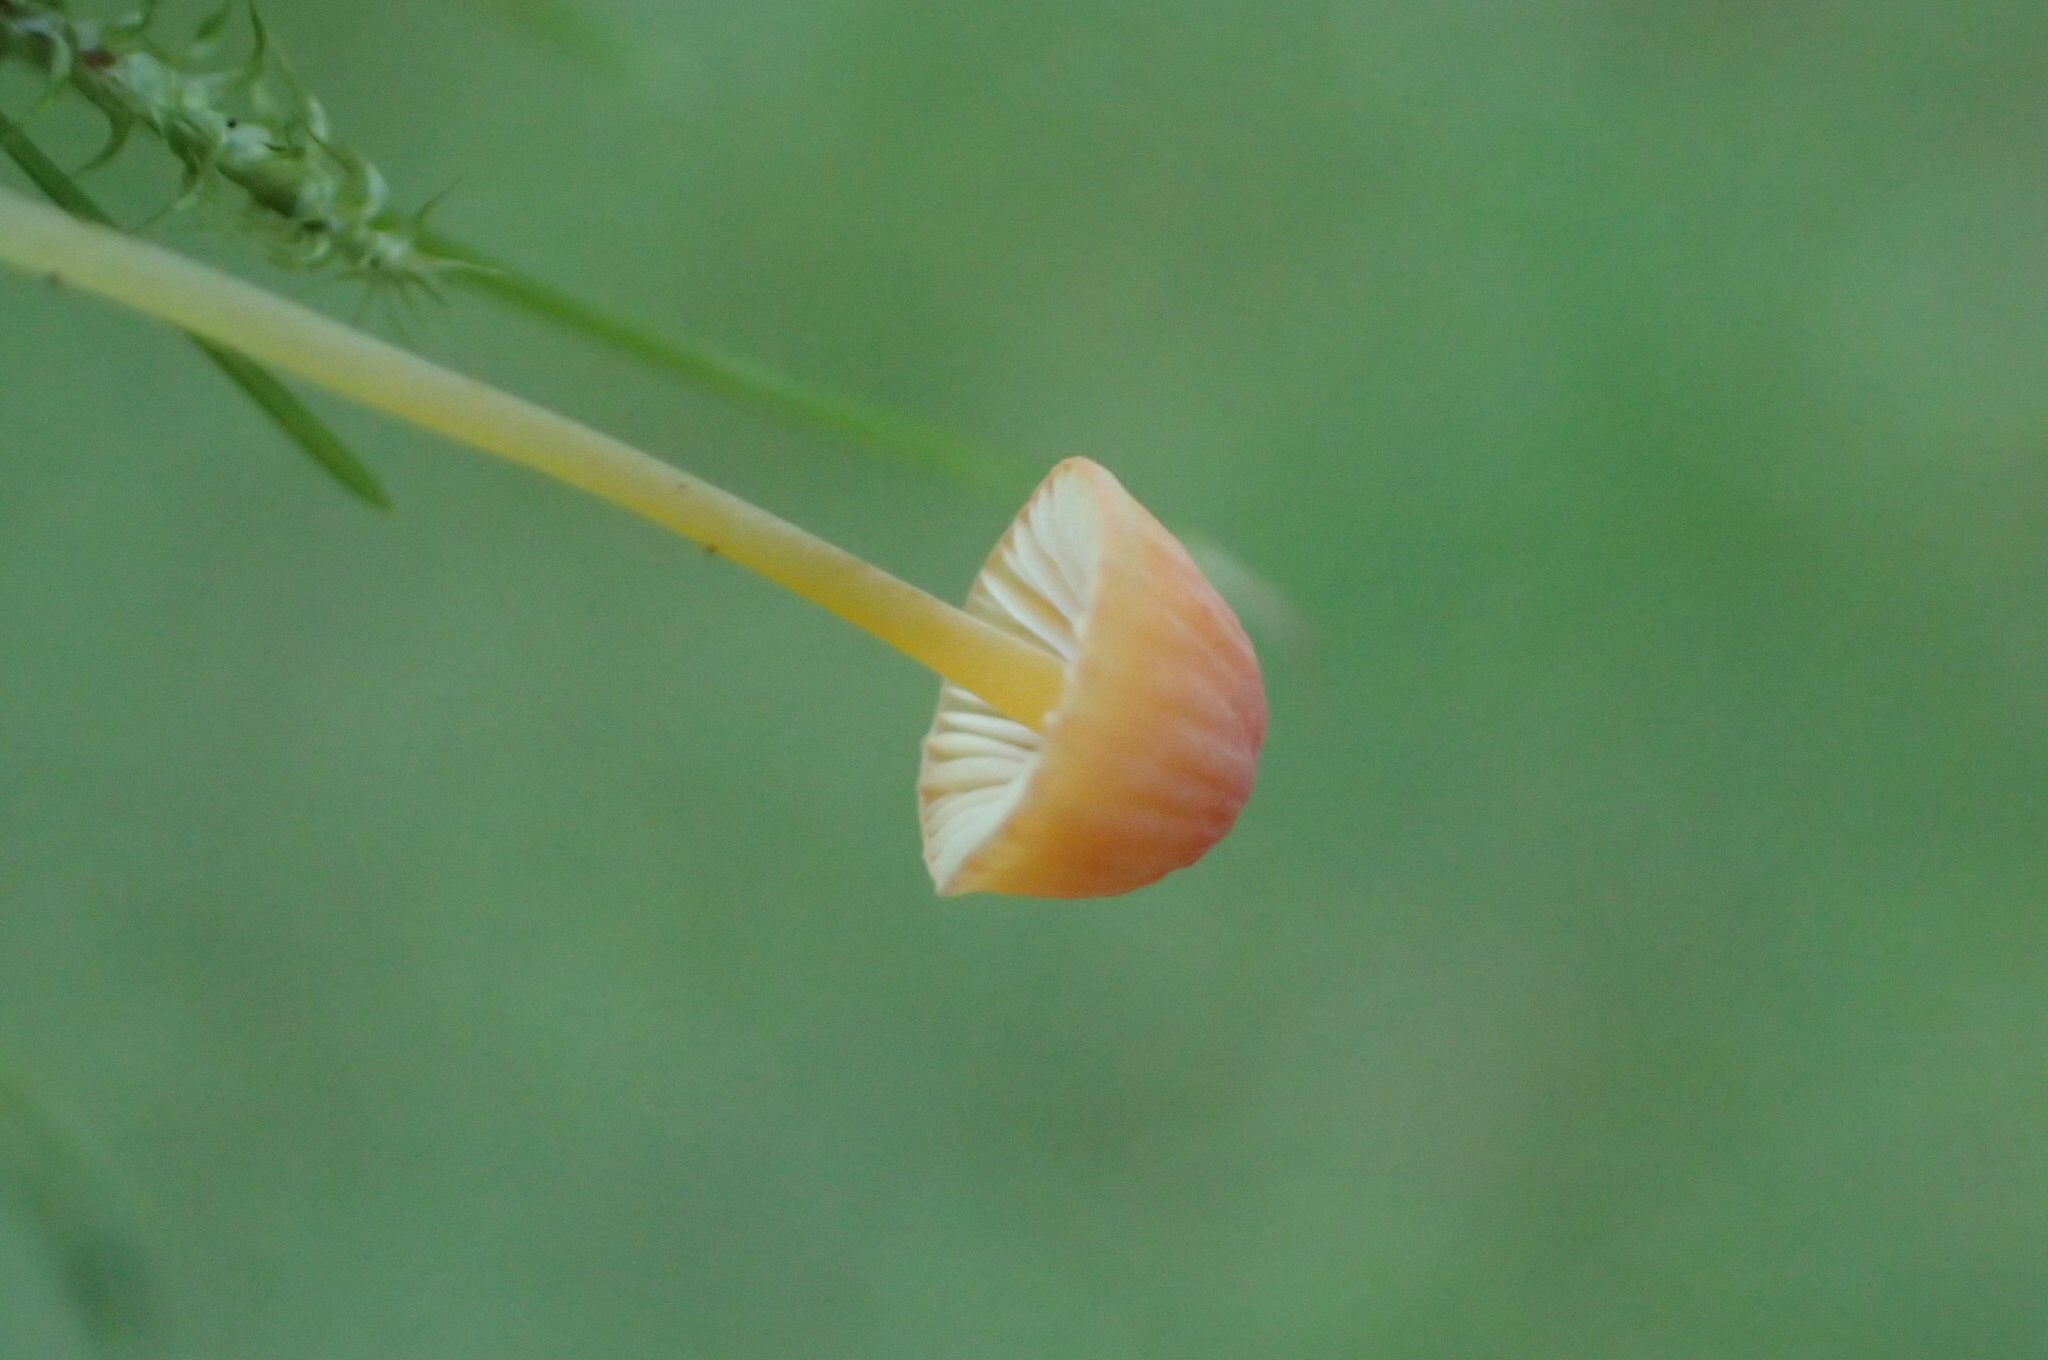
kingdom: Fungi
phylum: Basidiomycota
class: Agaricomycetes
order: Agaricales
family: Mycenaceae
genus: Mycena
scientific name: Mycena acicula
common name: orange huesvamp
